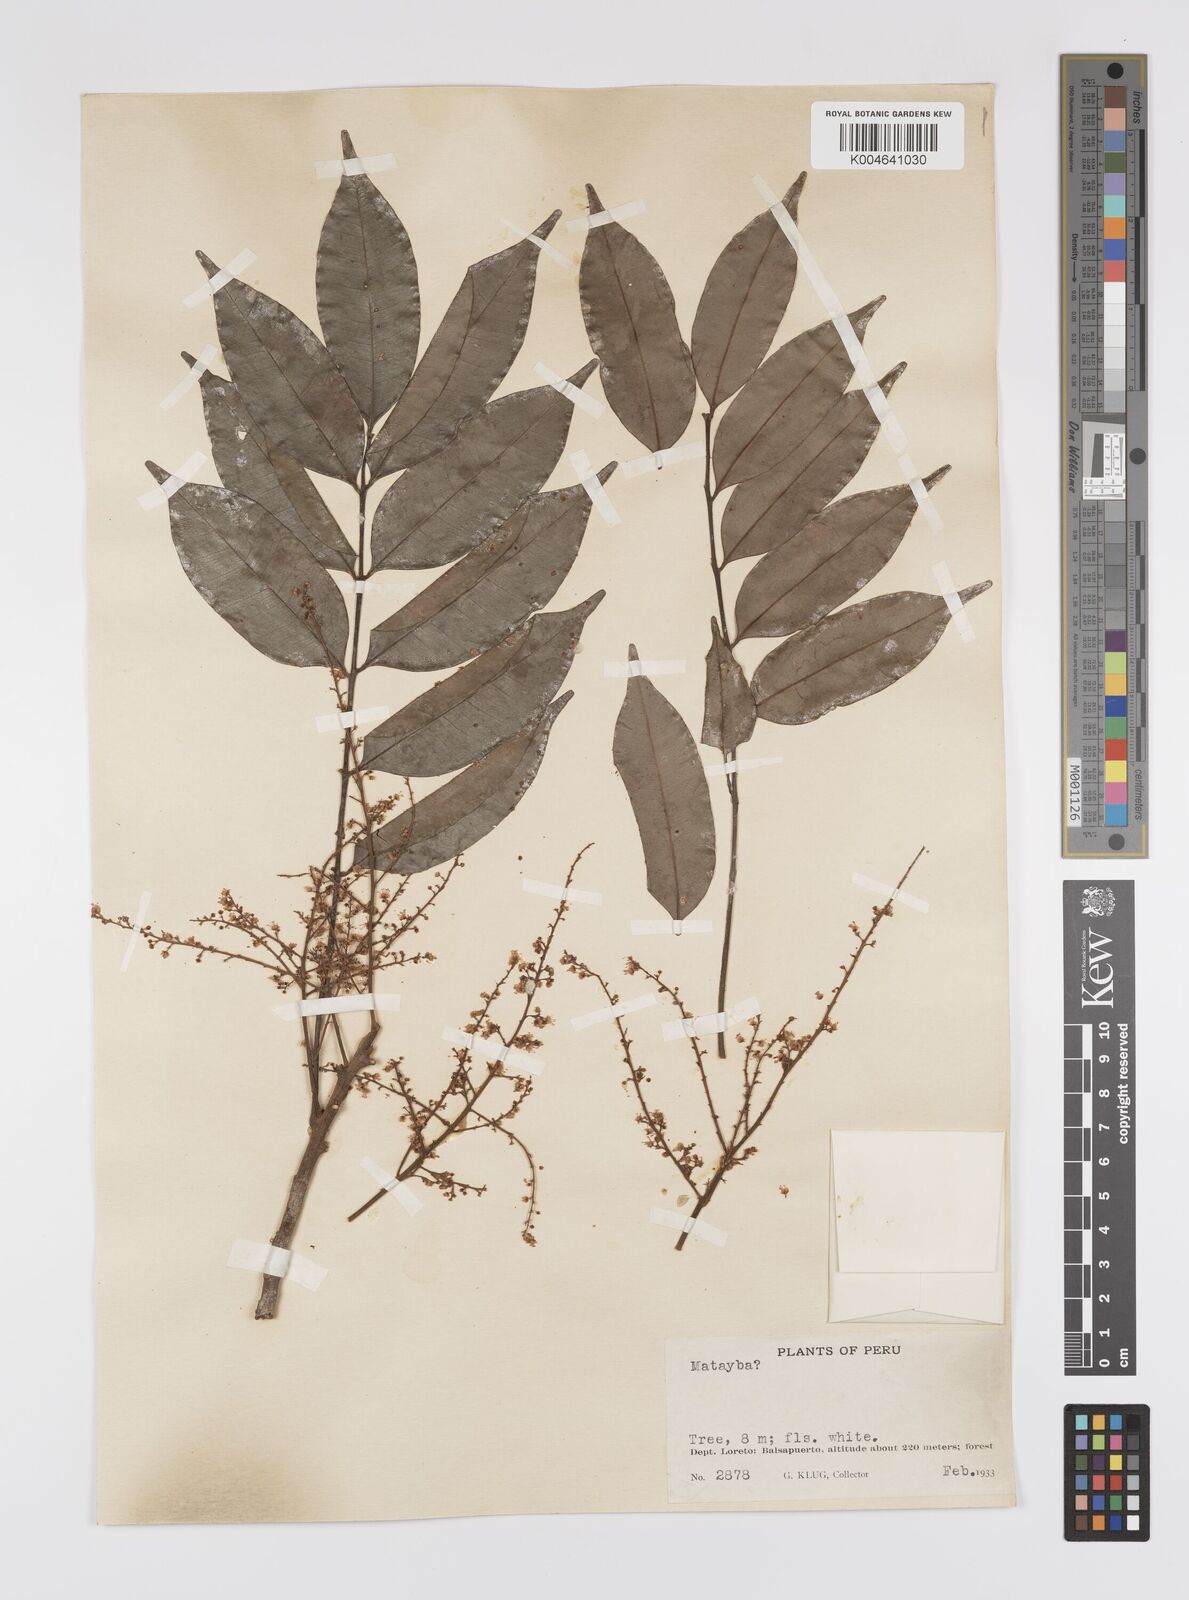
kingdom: Plantae
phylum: Tracheophyta
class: Magnoliopsida
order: Sapindales
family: Sapindaceae
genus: Matayba
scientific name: Matayba peruviana
